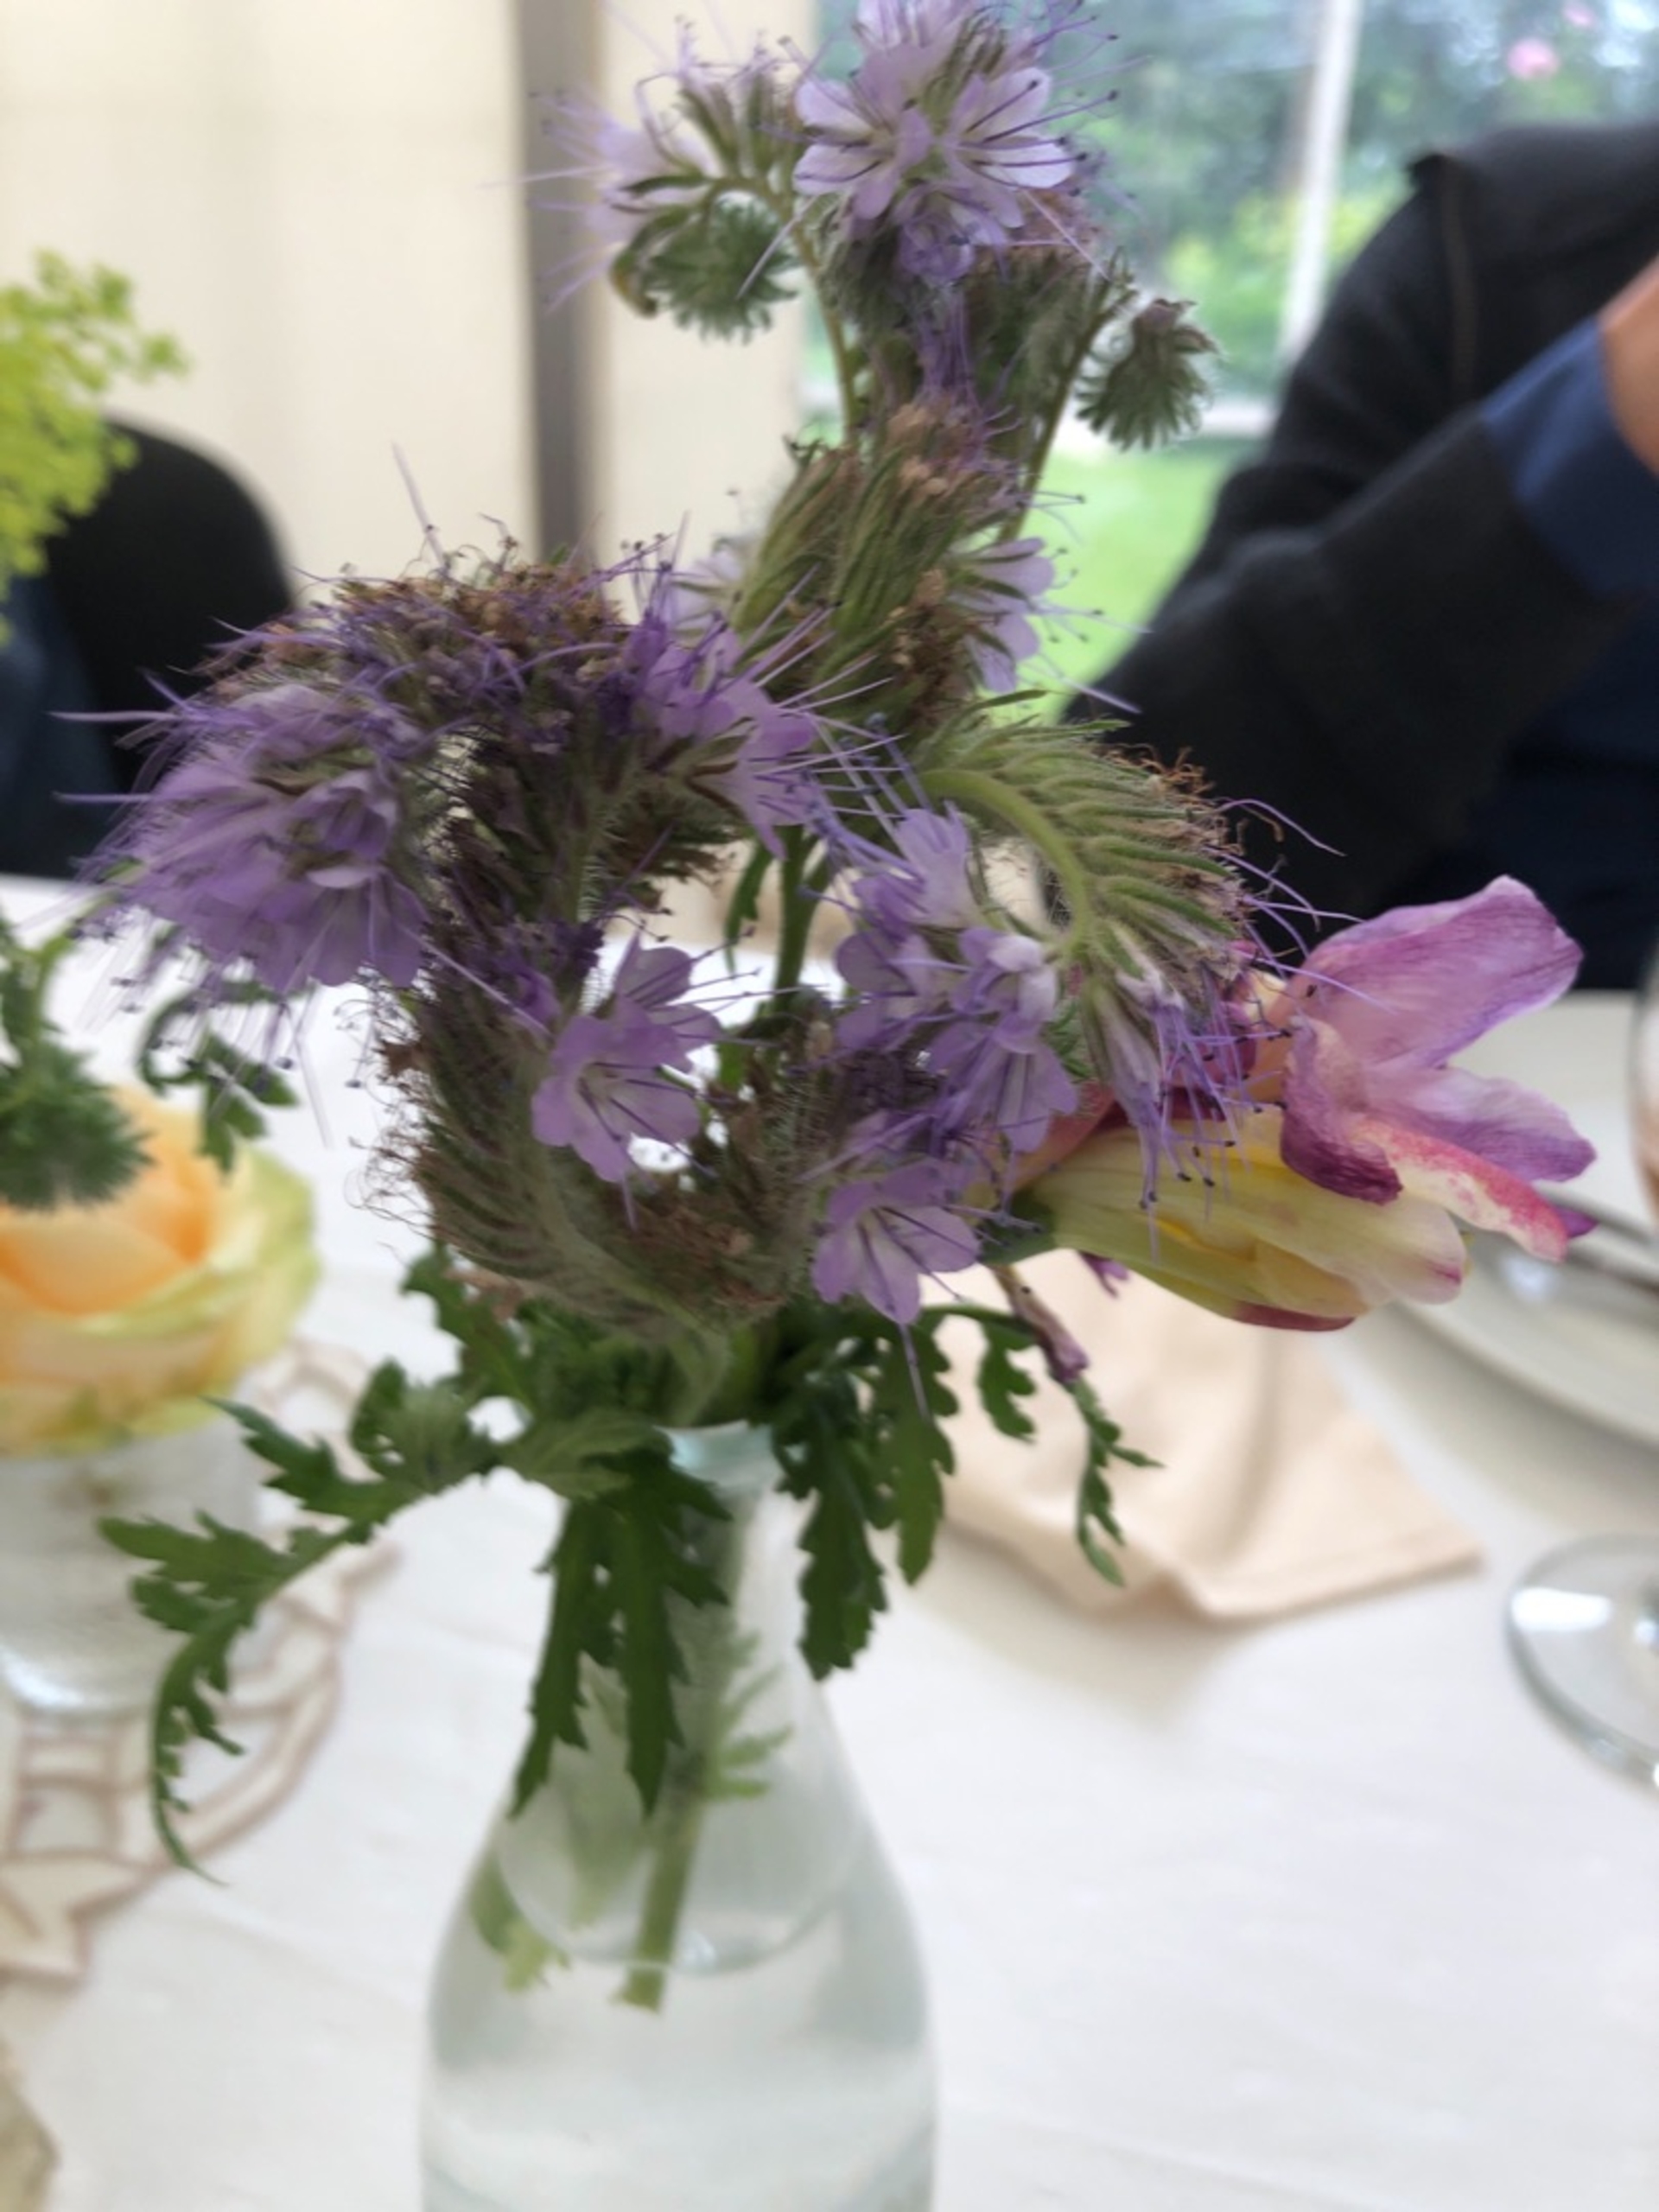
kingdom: Plantae
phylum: Tracheophyta
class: Magnoliopsida
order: Boraginales
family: Hydrophyllaceae
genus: Phacelia
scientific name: Phacelia tanacetifolia
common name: Honningurt
